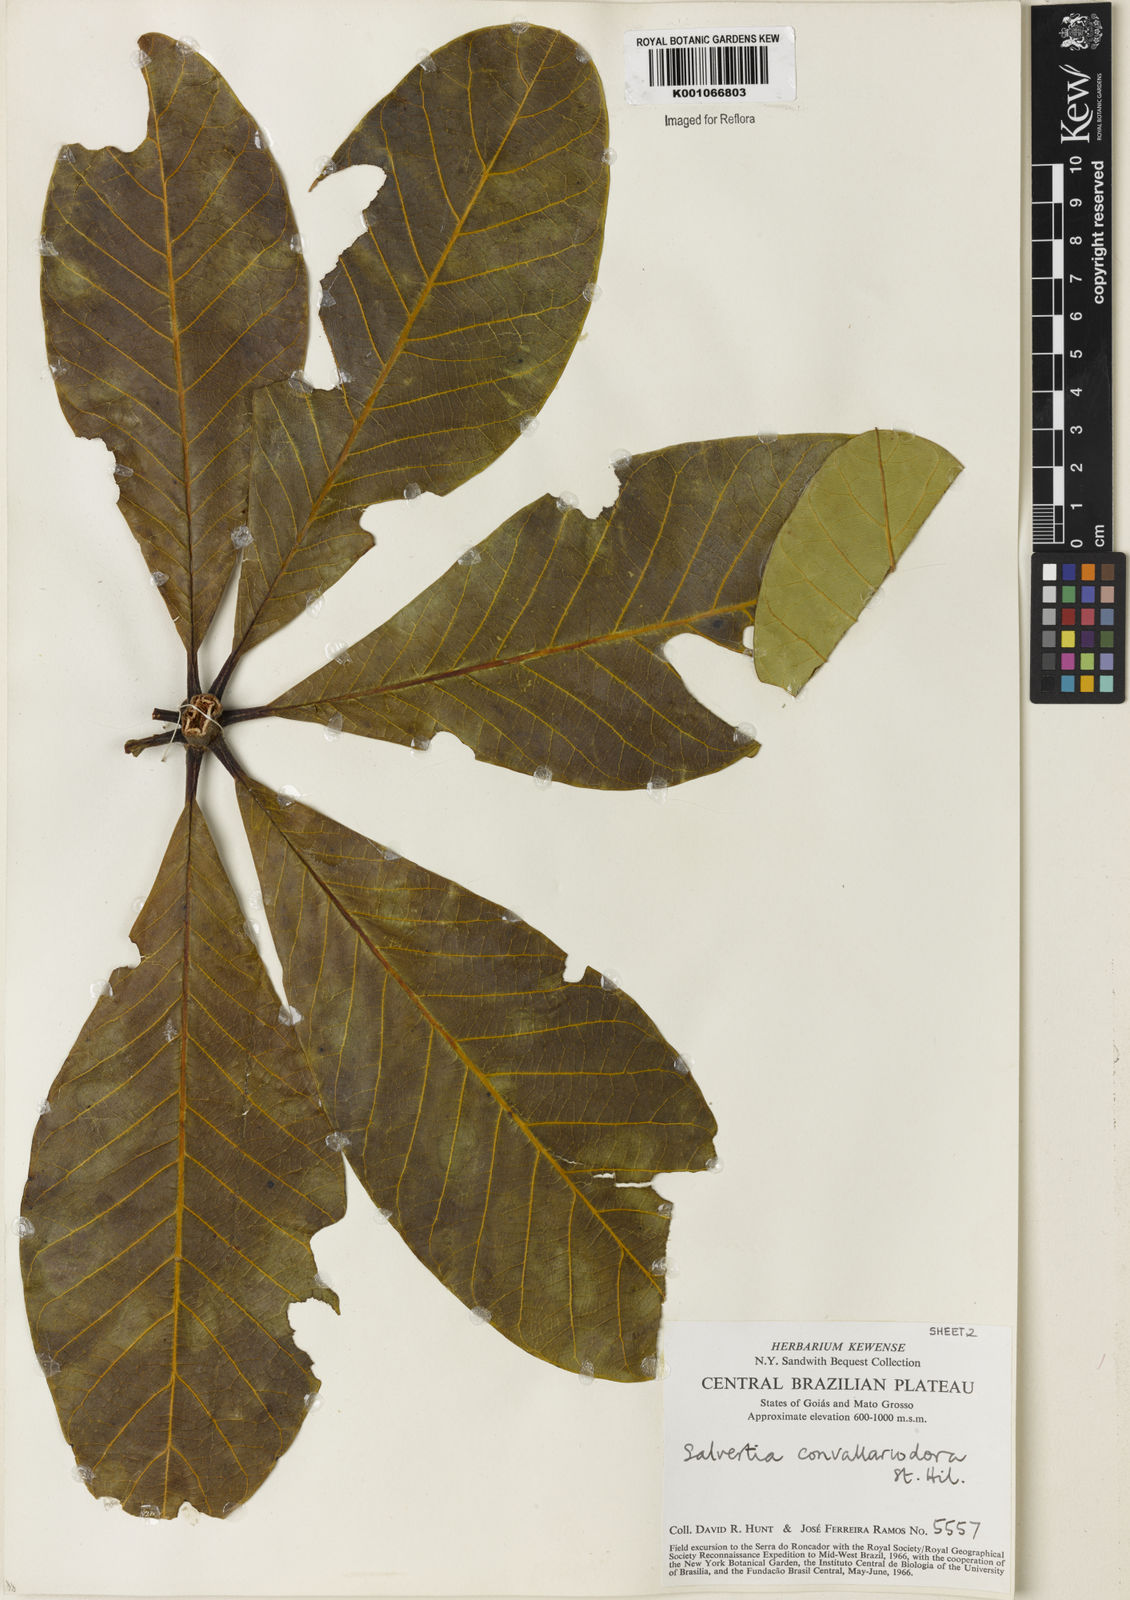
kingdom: Plantae
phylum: Tracheophyta
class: Magnoliopsida
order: Myrtales
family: Vochysiaceae
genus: Salvertia
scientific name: Salvertia convallariodora
